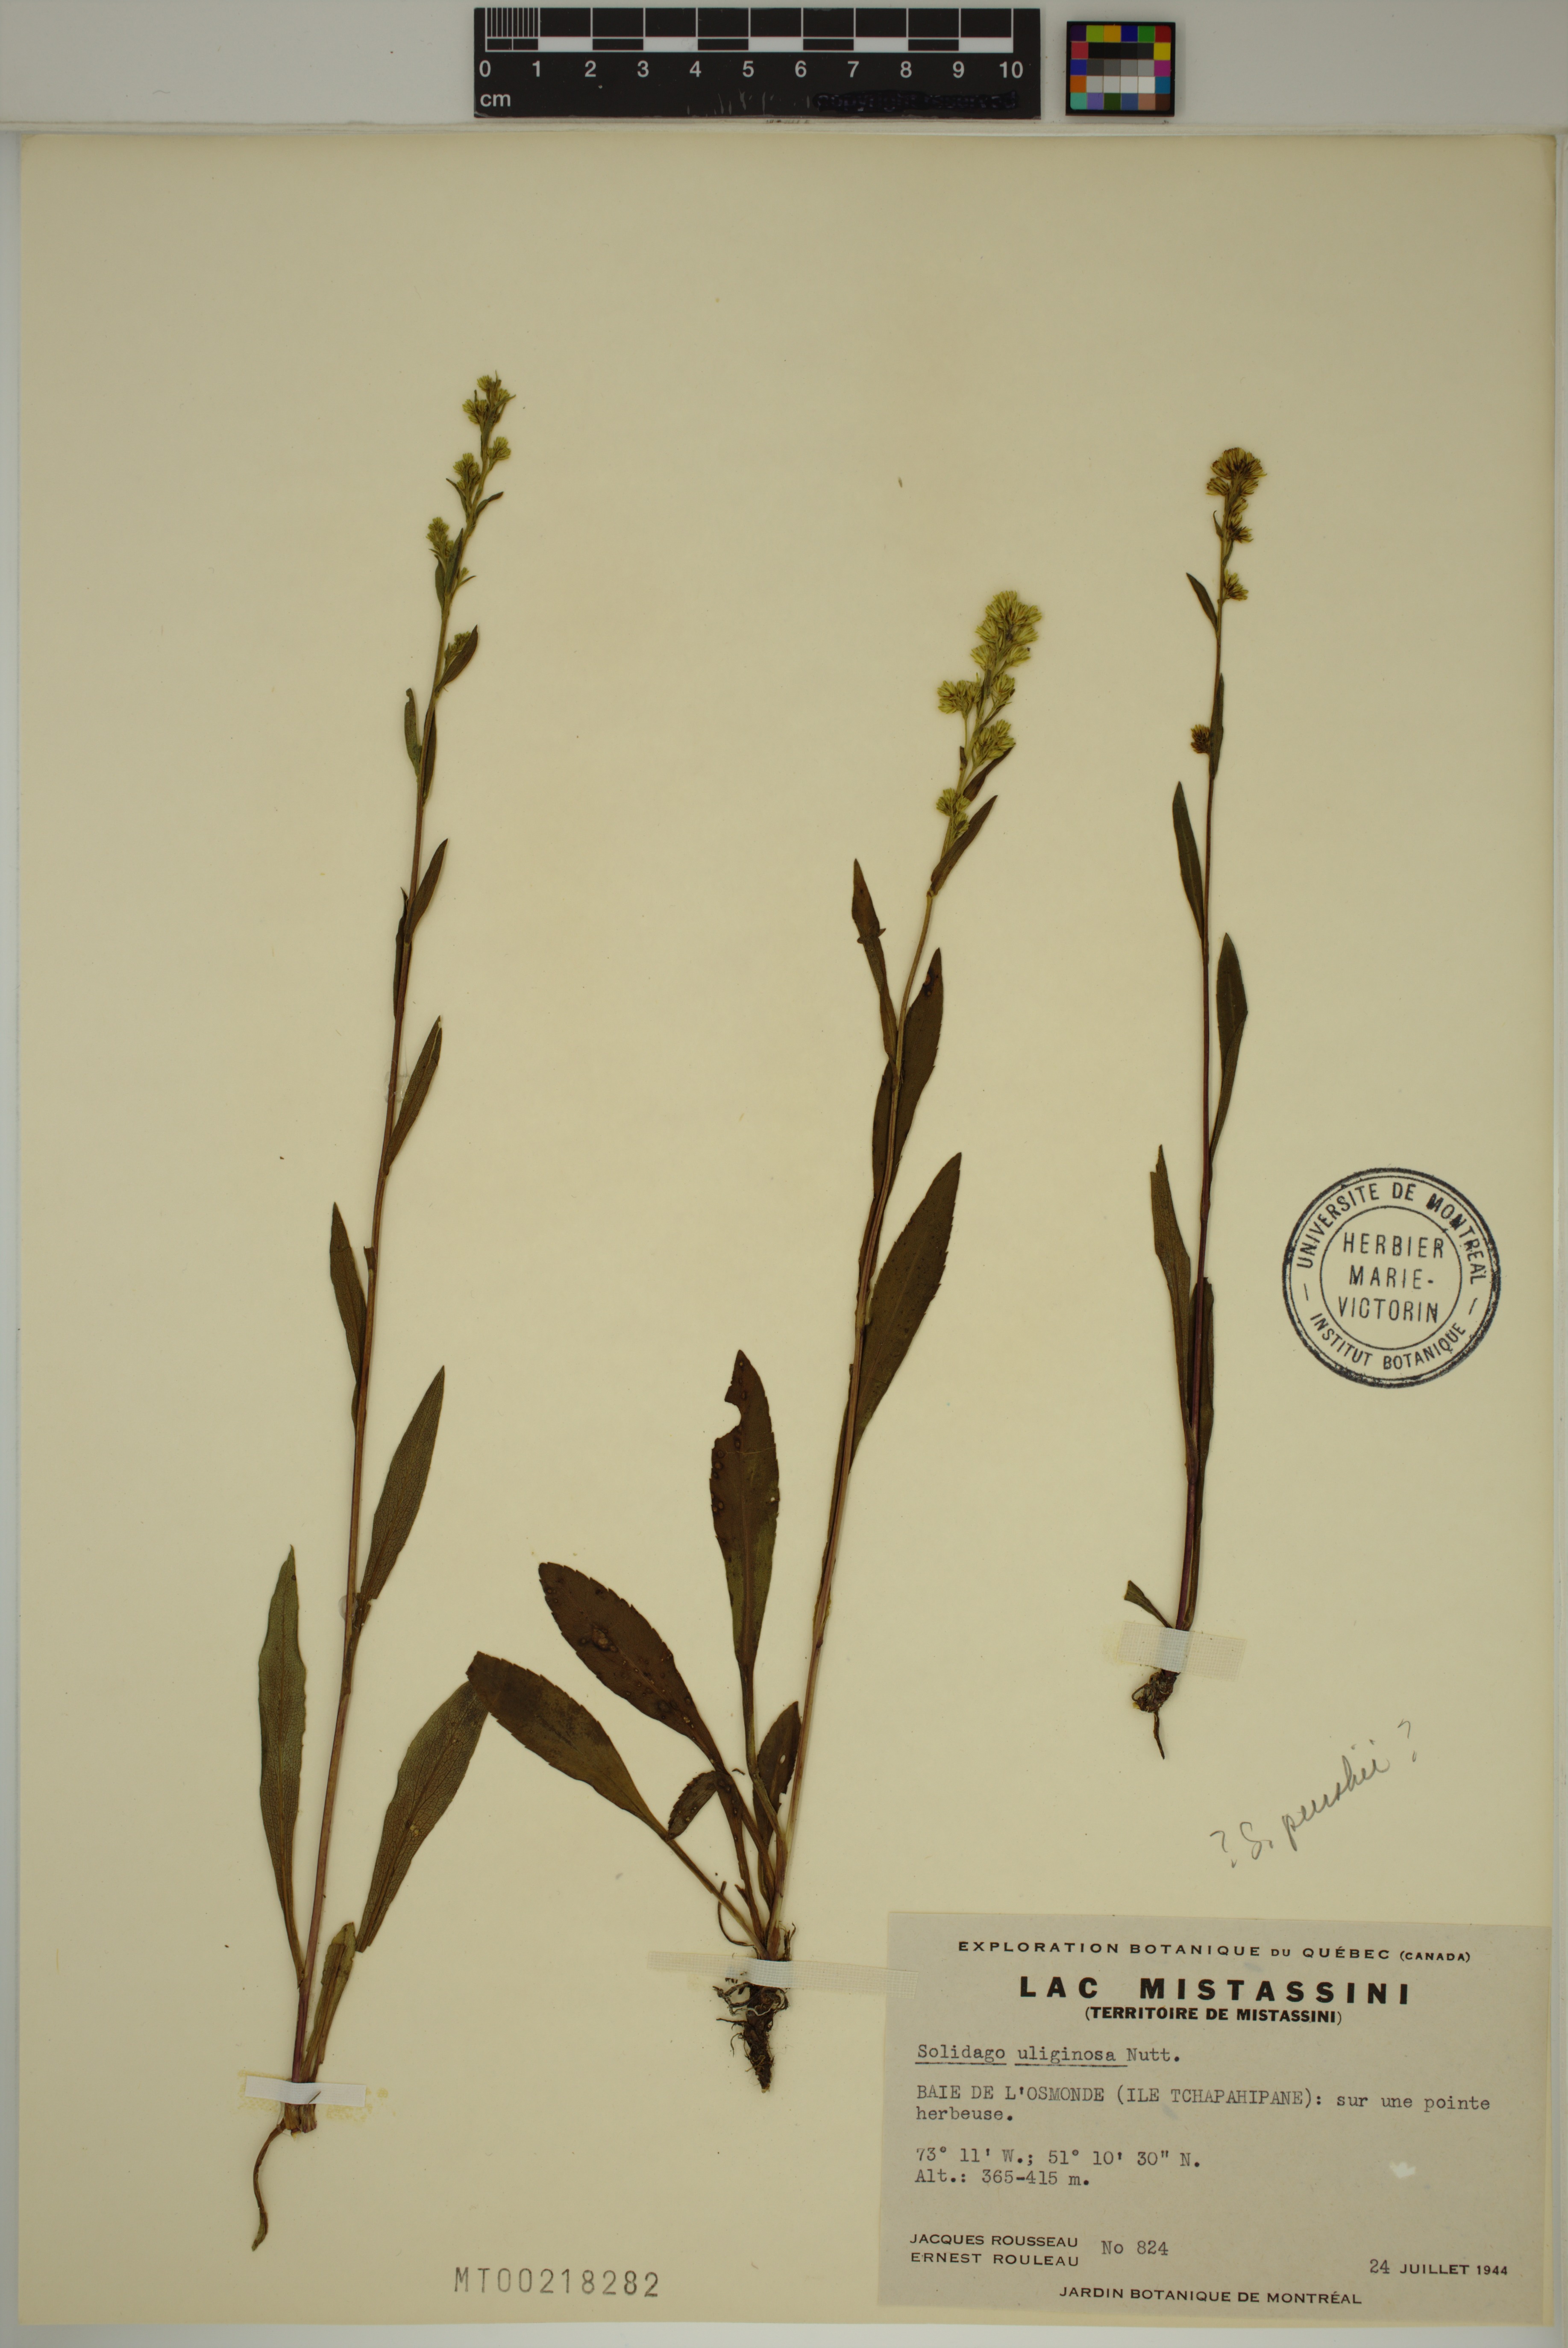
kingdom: Plantae
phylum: Tracheophyta
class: Magnoliopsida
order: Asterales
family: Asteraceae
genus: Solidago
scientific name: Solidago uliginosa
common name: Bog goldenrod
